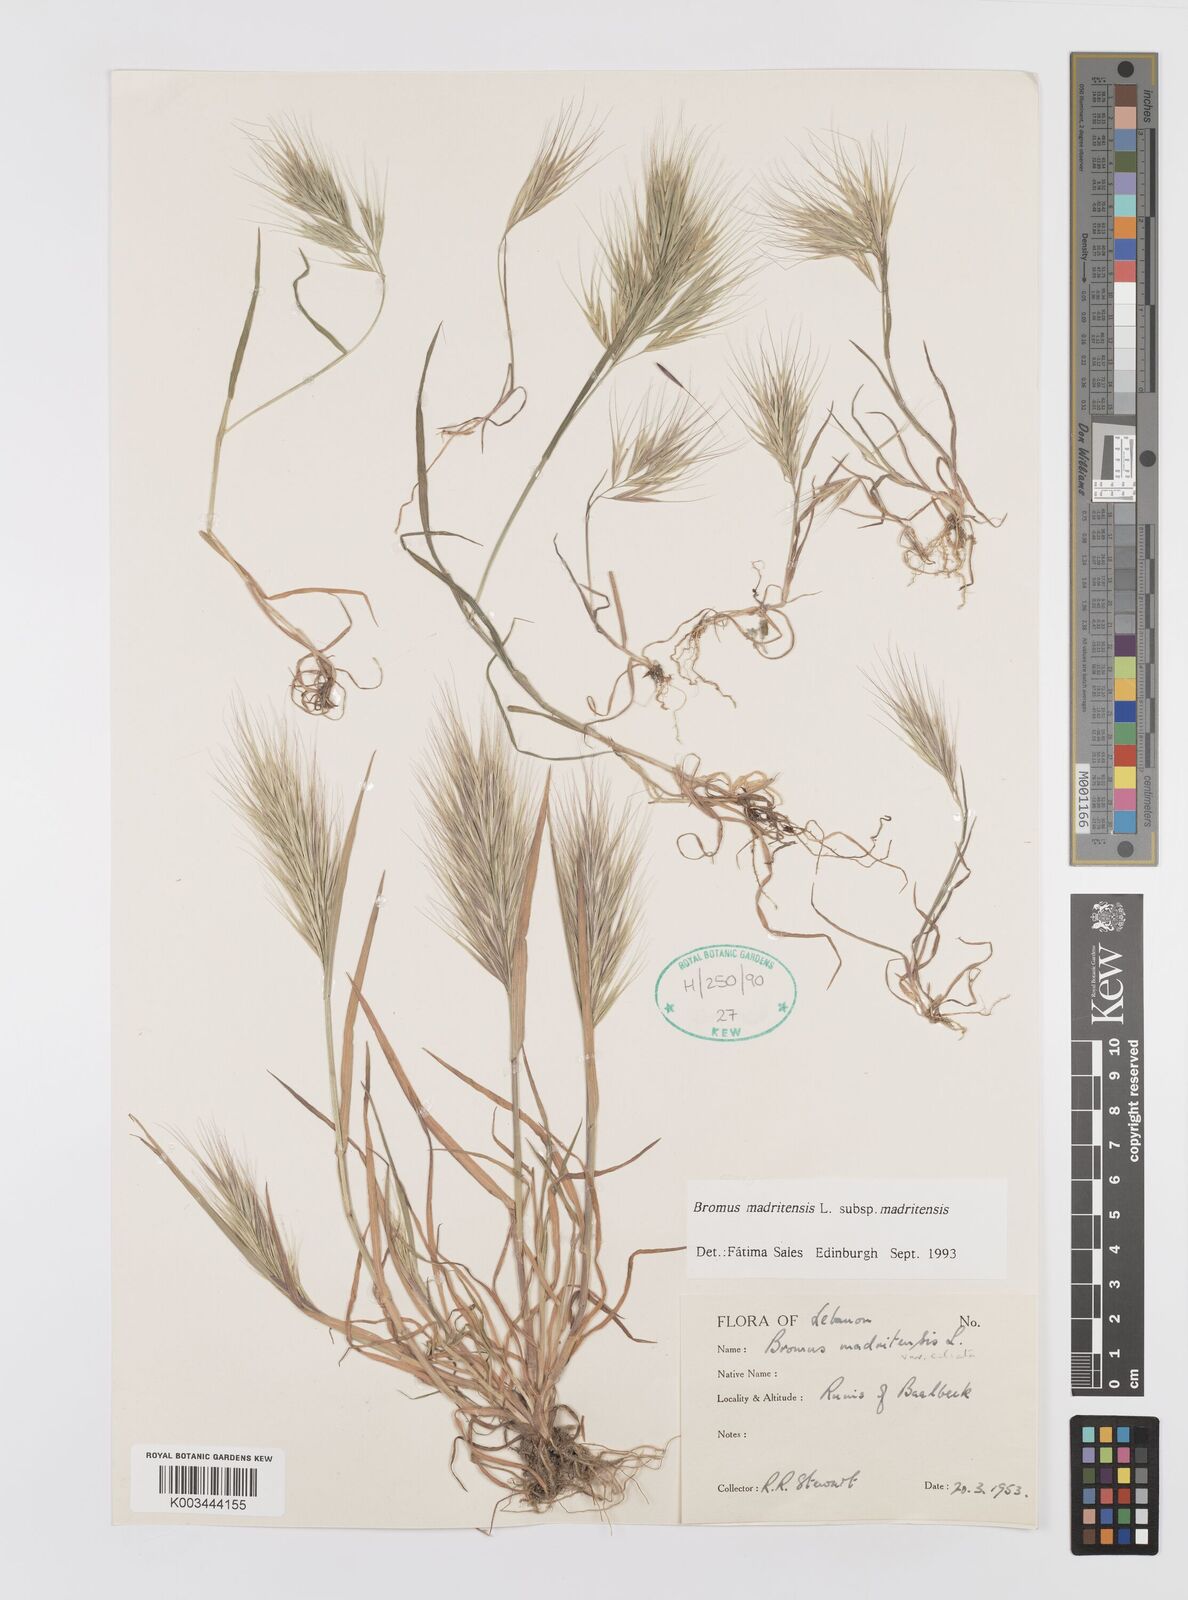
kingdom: Plantae
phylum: Tracheophyta
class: Liliopsida
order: Poales
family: Poaceae
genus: Bromus
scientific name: Bromus madritensis
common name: Compact brome
